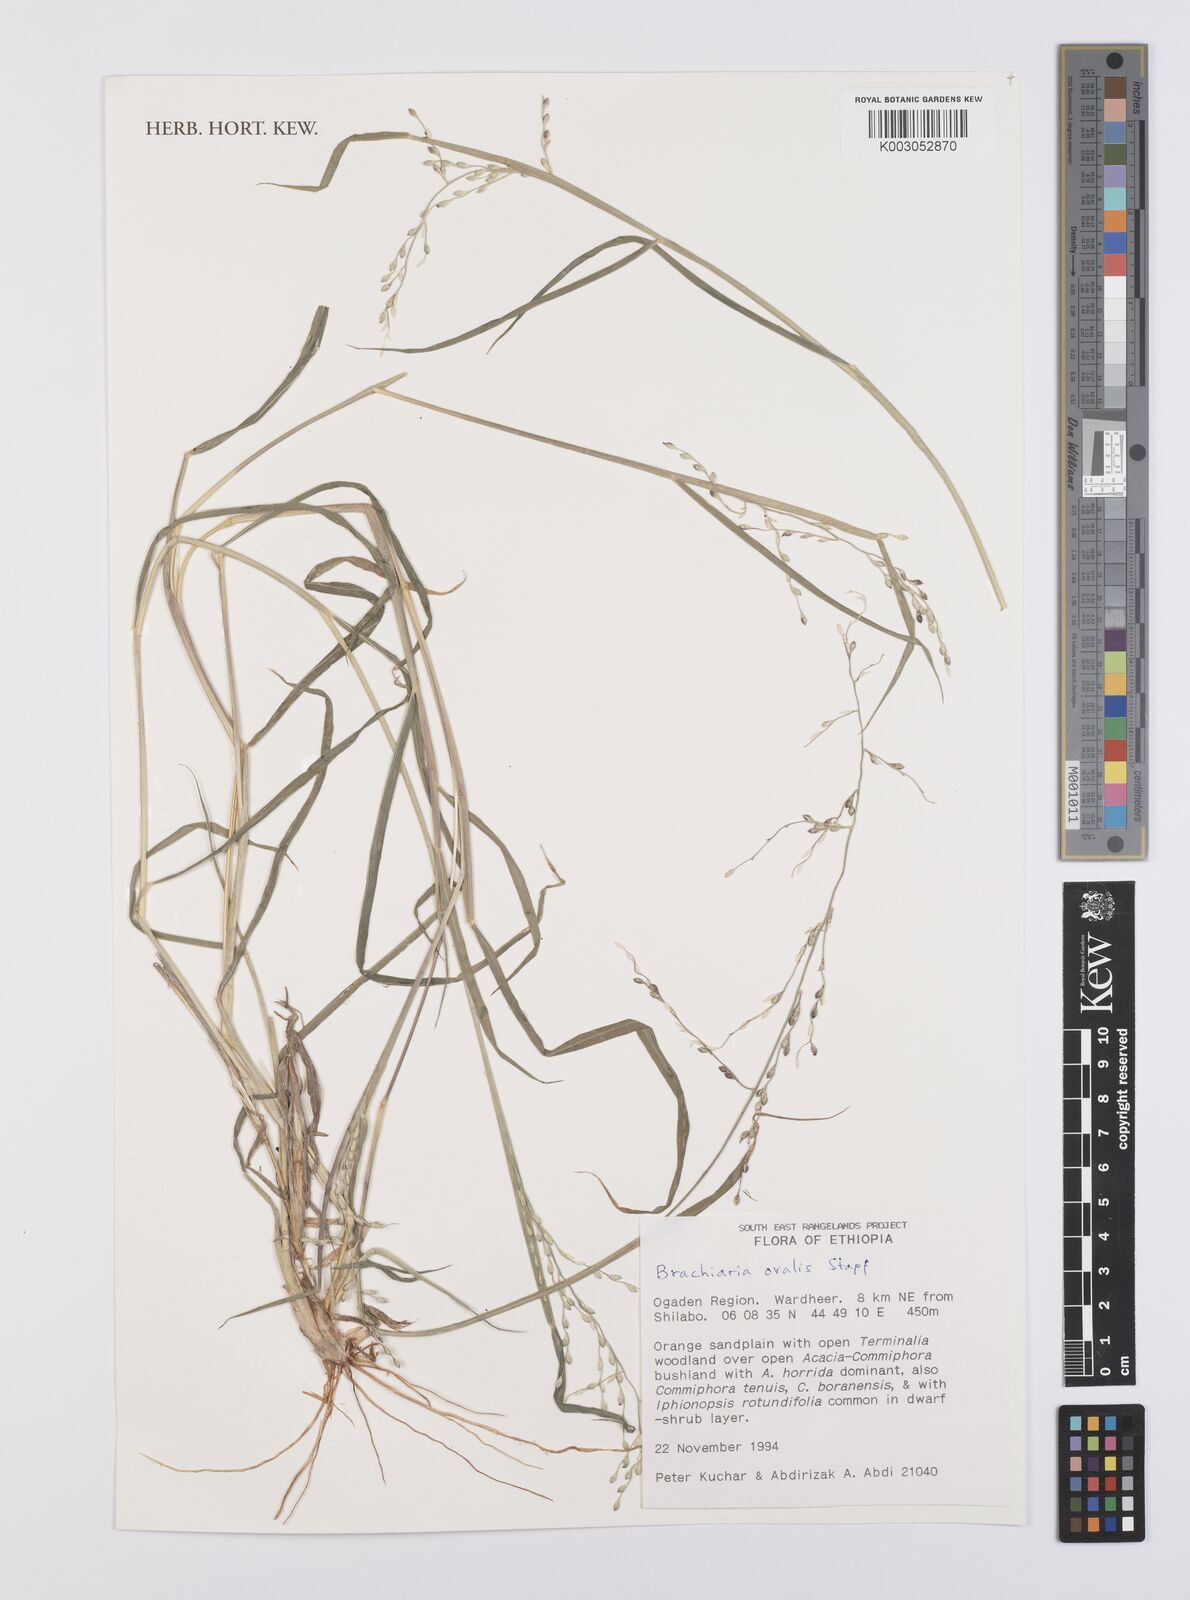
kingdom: Plantae
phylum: Tracheophyta
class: Liliopsida
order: Poales
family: Poaceae
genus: Urochloa
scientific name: Urochloa ovalis
